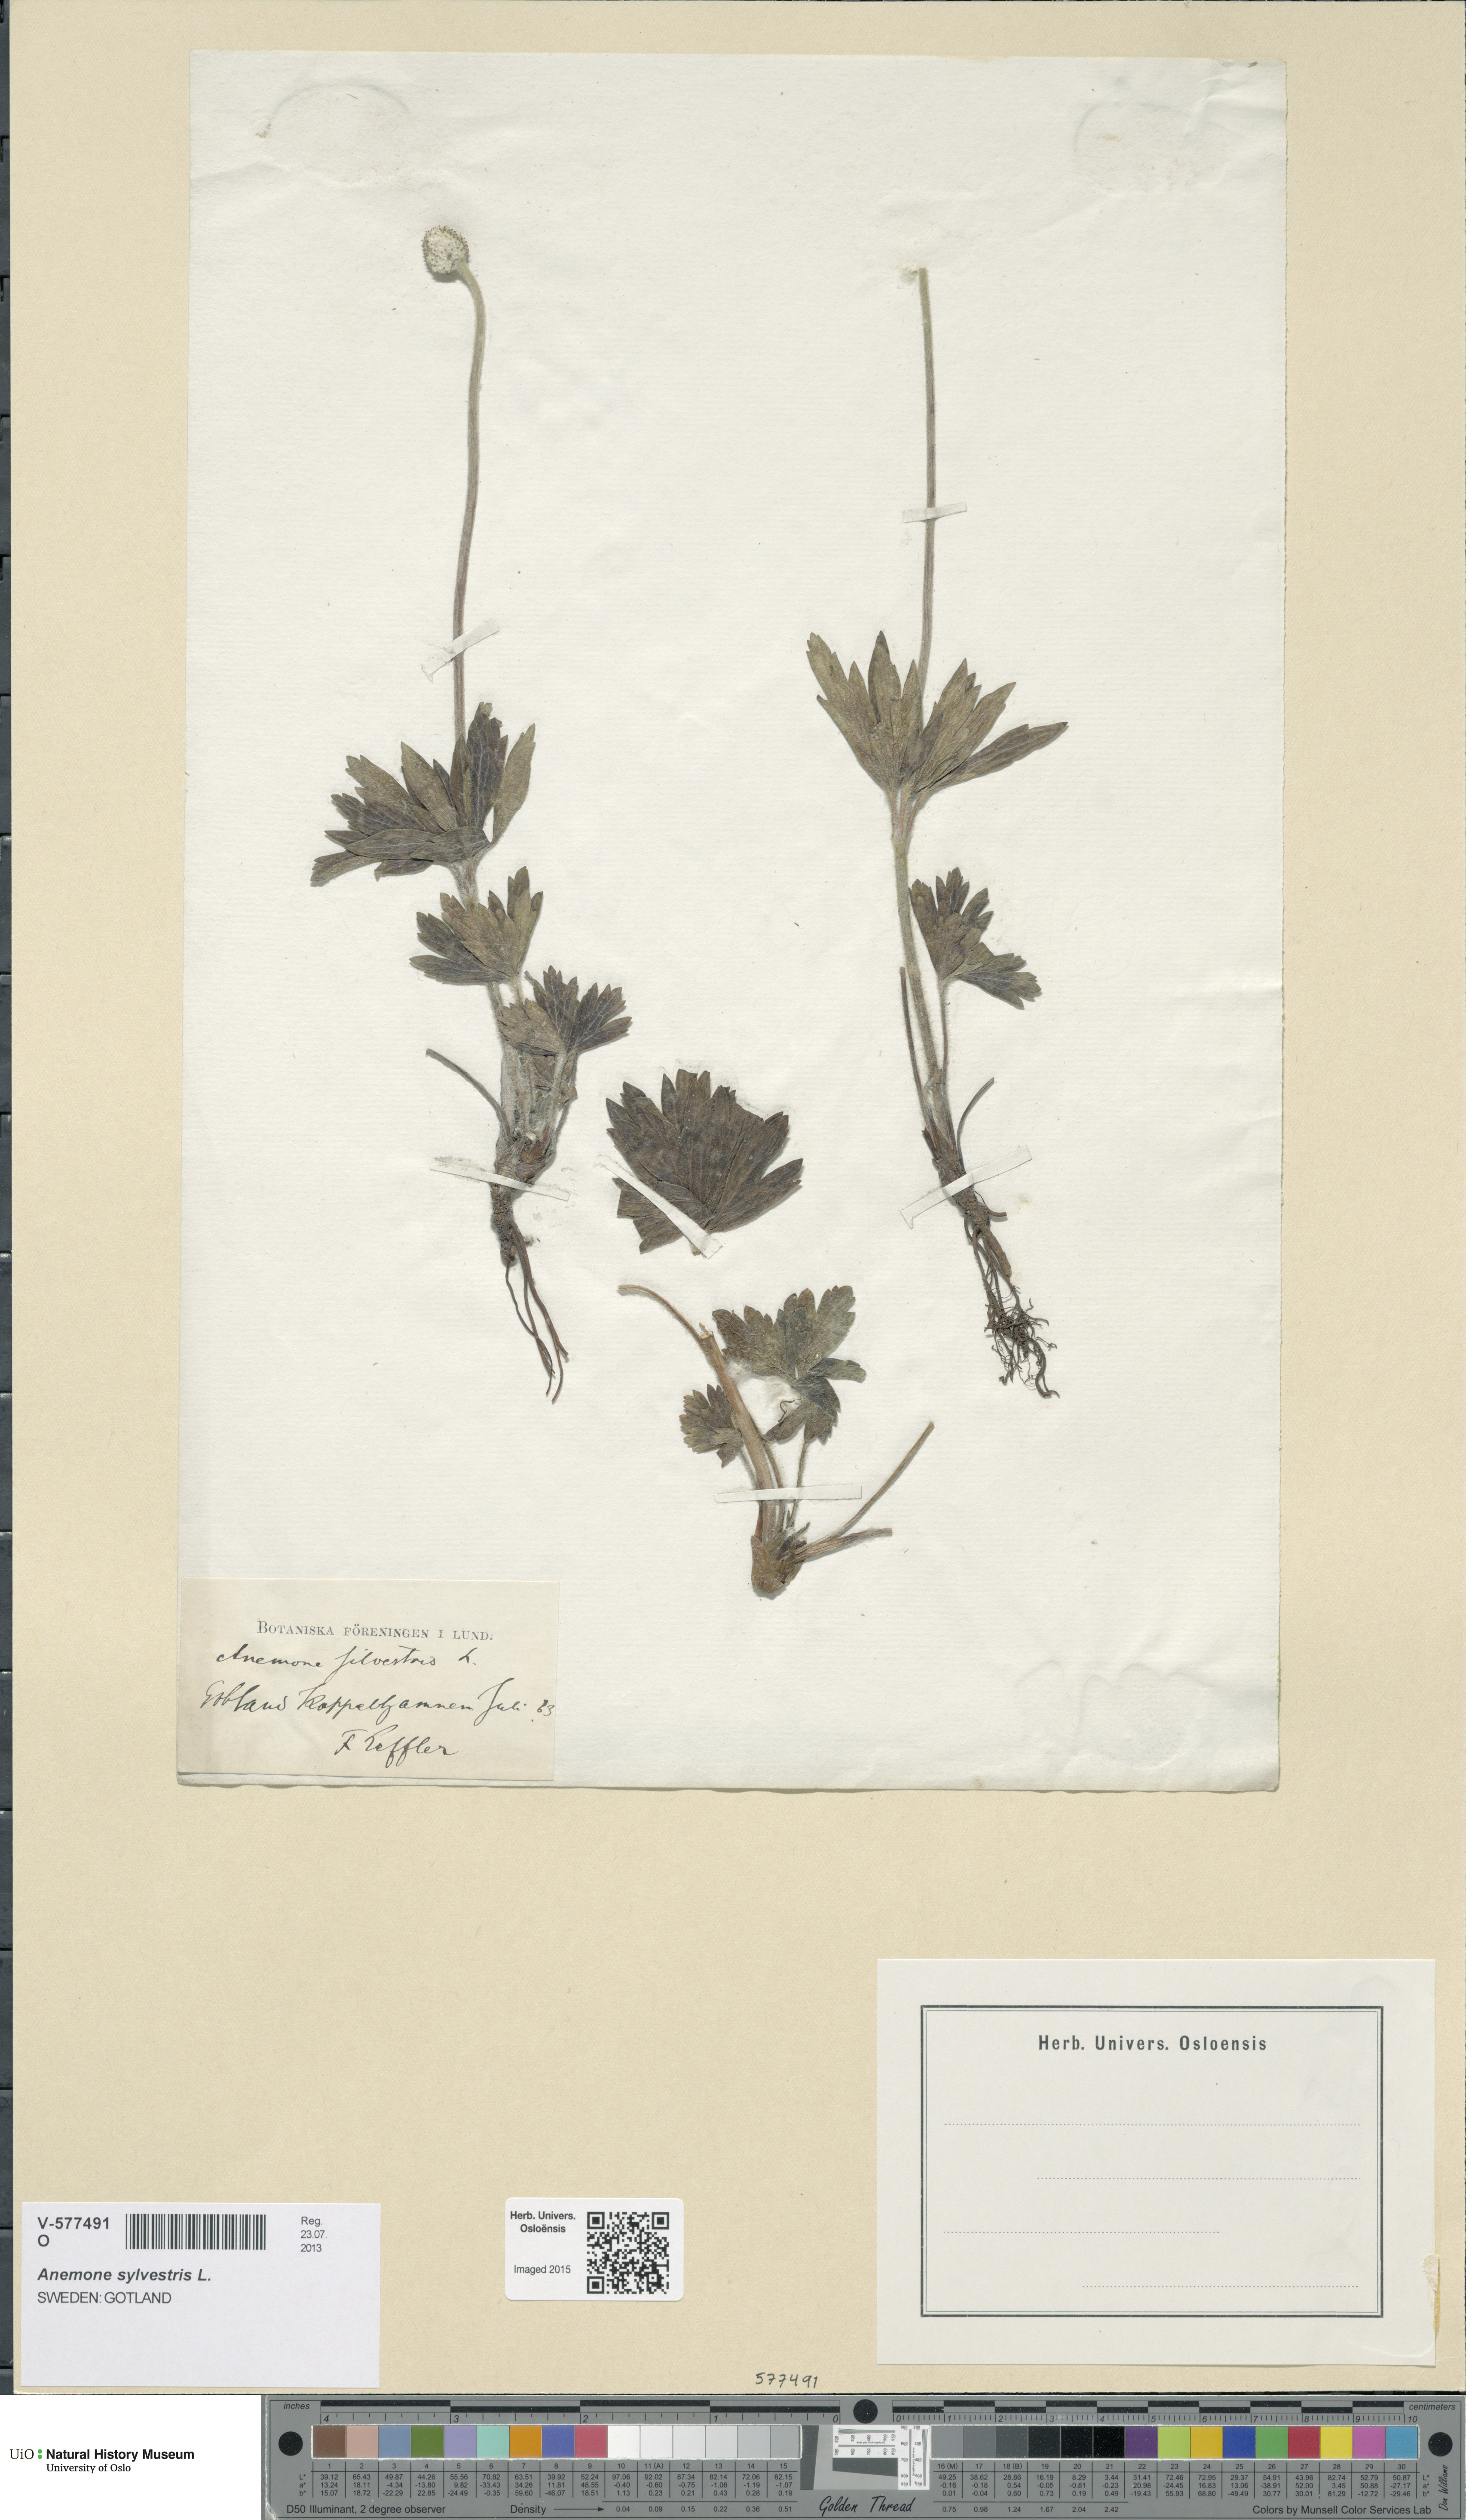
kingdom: Plantae
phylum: Tracheophyta
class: Magnoliopsida
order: Ranunculales
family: Ranunculaceae
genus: Anemone
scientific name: Anemone sylvestris
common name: Snowdrop anemone
